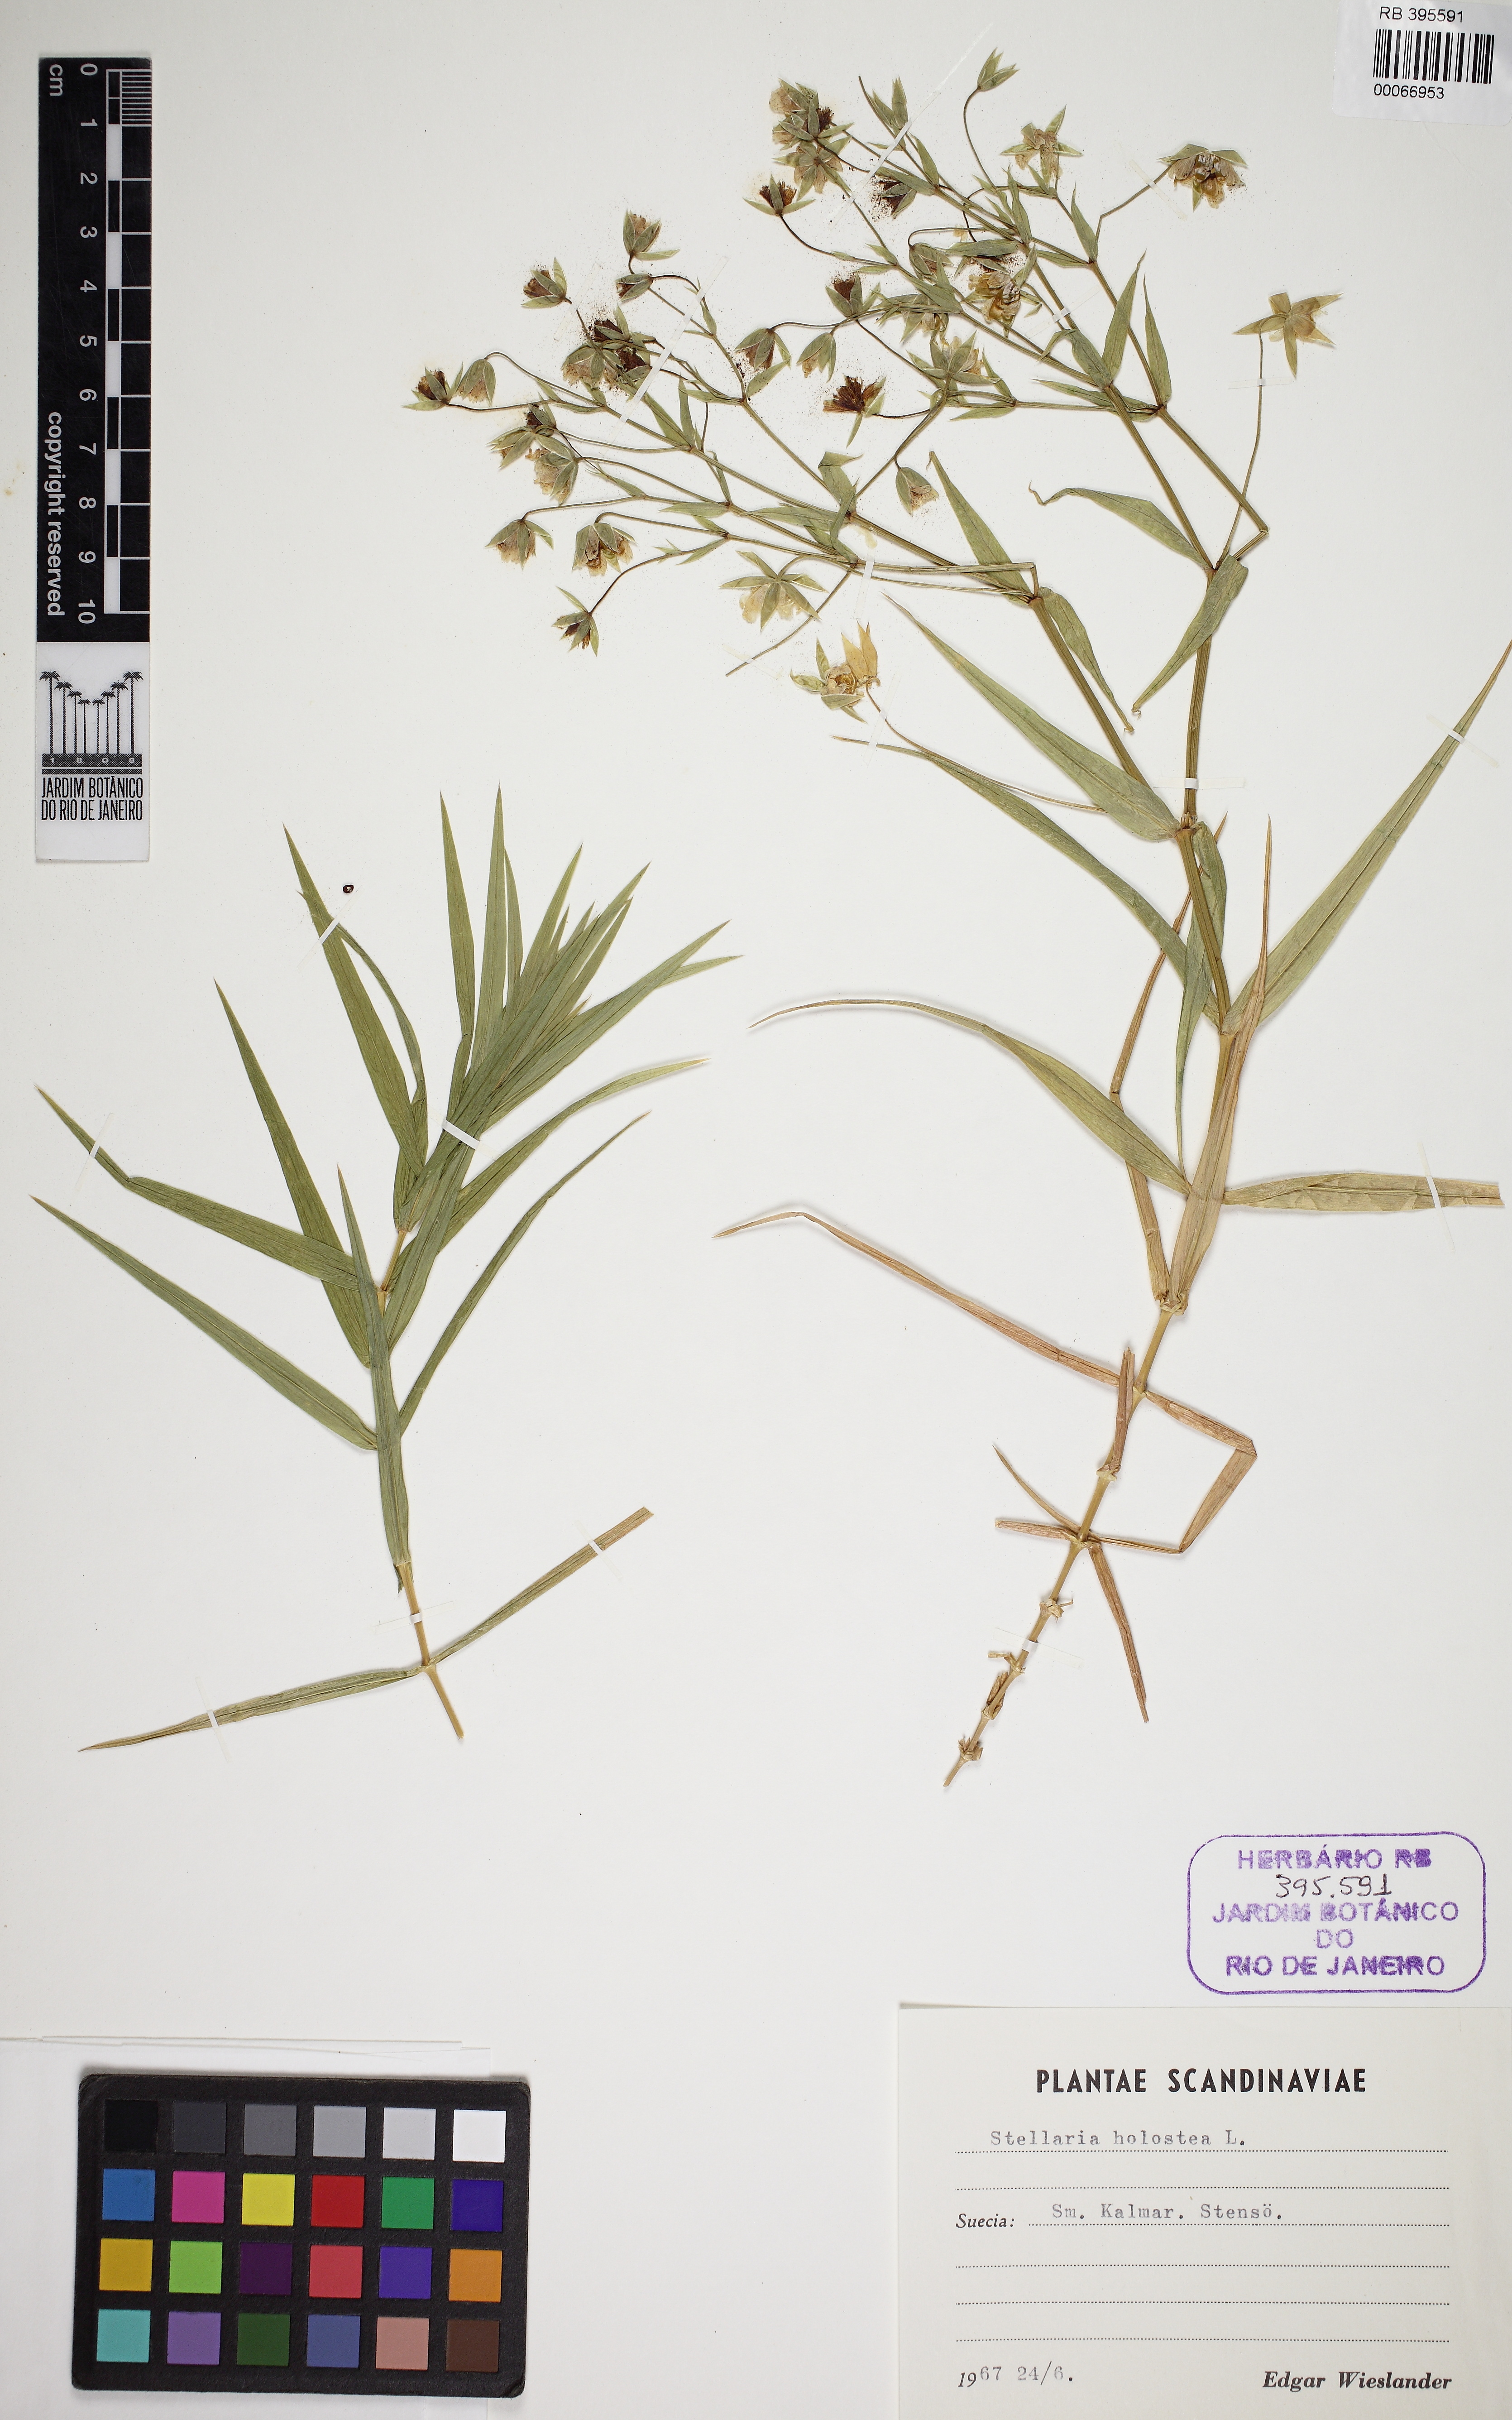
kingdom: Plantae
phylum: Tracheophyta
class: Magnoliopsida
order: Caryophyllales
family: Caryophyllaceae
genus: Rabelera
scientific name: Rabelera holostea
